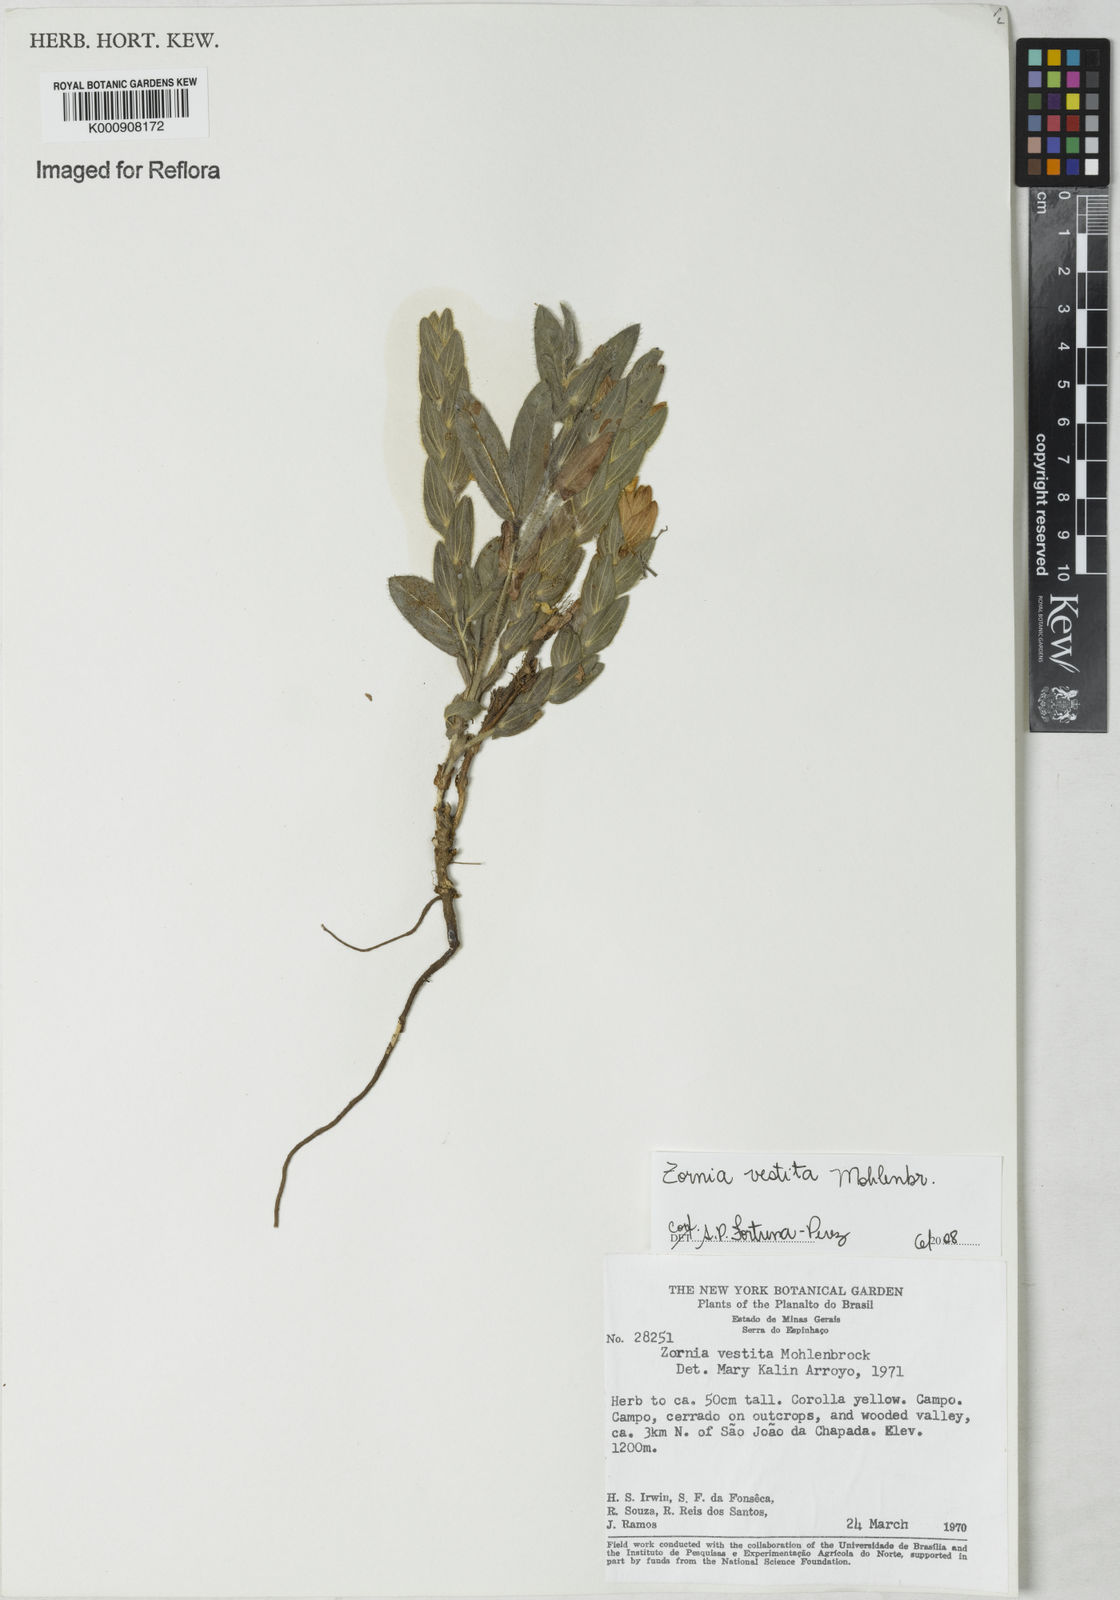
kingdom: Plantae
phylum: Tracheophyta
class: Magnoliopsida
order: Fabales
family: Fabaceae
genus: Zornia
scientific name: Zornia villosa
